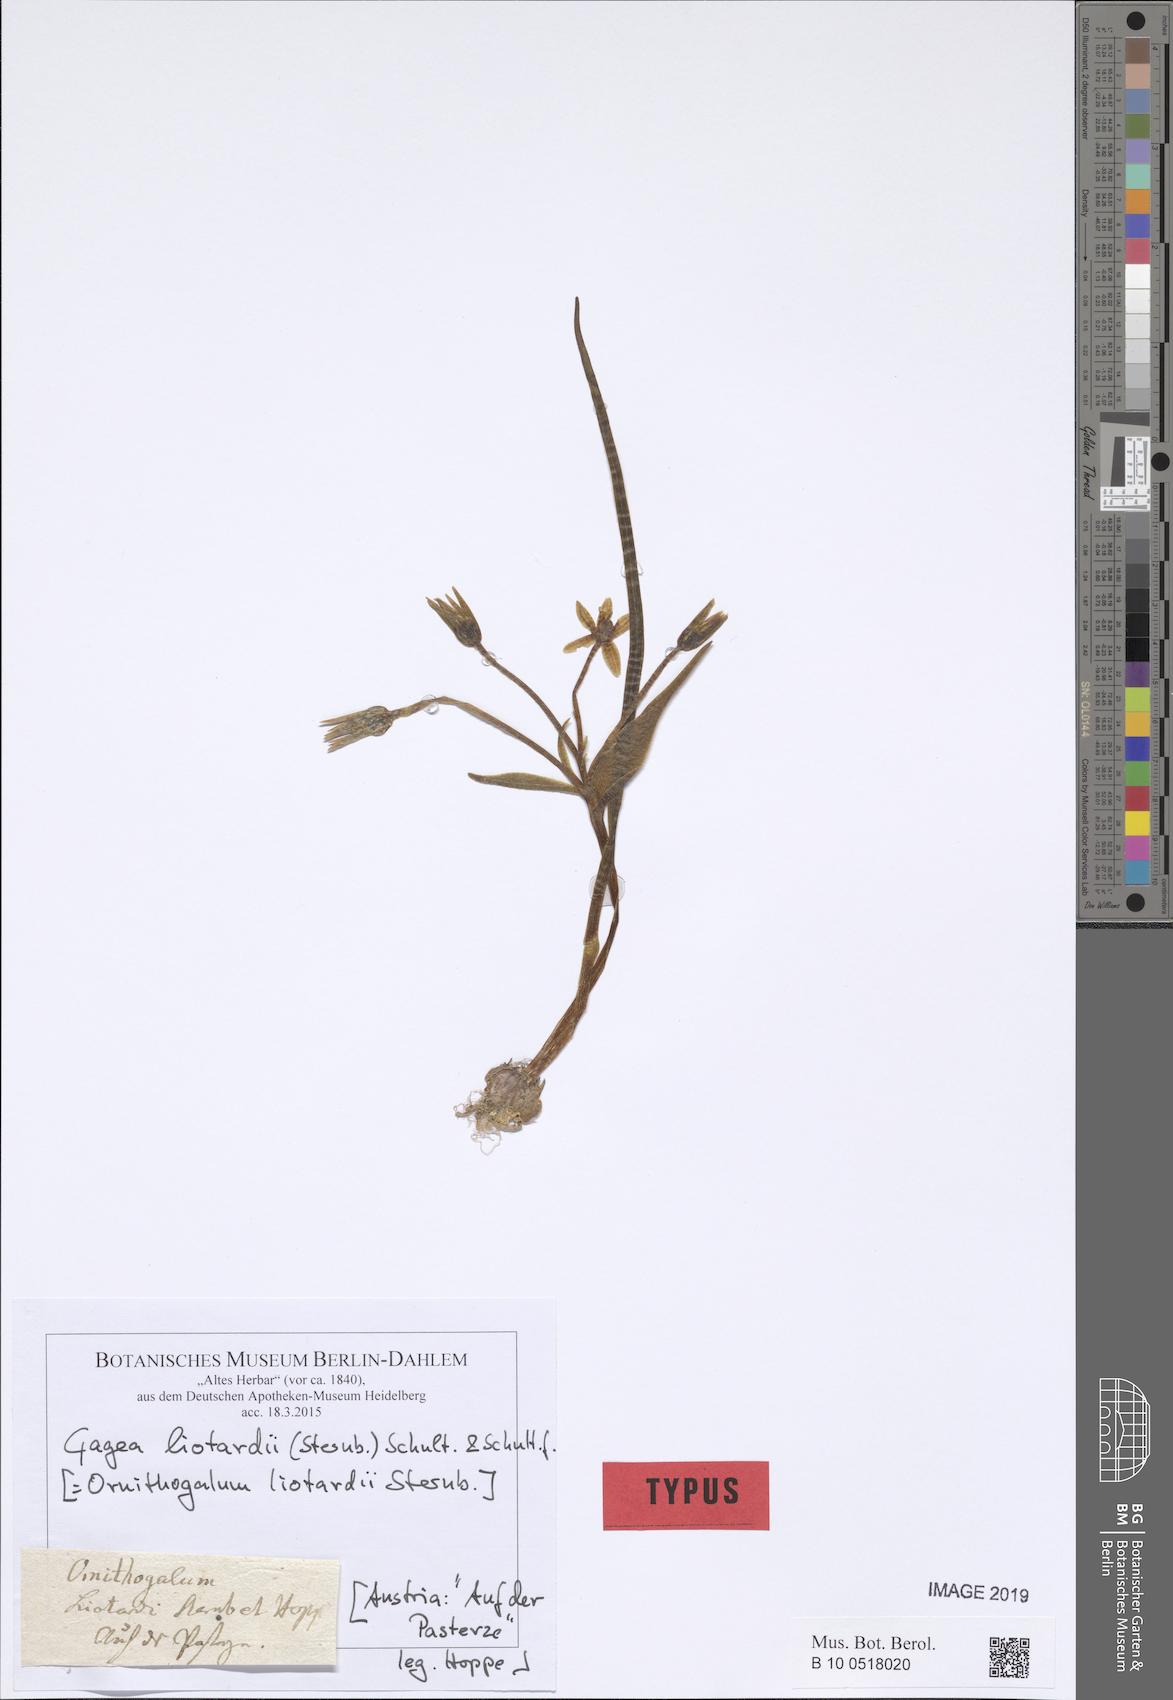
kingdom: Plantae
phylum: Tracheophyta
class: Liliopsida
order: Liliales
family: Liliaceae
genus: Gagea
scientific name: Gagea fragifera
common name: Lily
